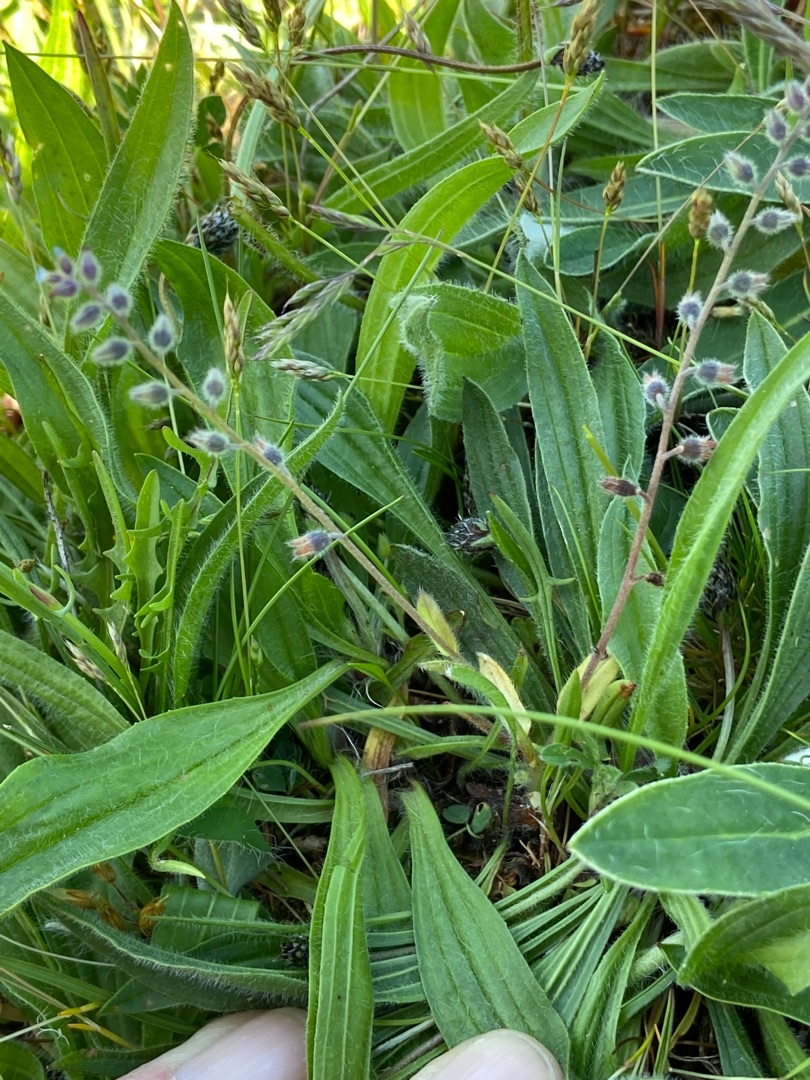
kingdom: Plantae
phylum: Tracheophyta
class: Magnoliopsida
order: Boraginales
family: Boraginaceae
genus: Myosotis
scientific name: Myosotis ramosissima
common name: Bakke-forglemmigej
